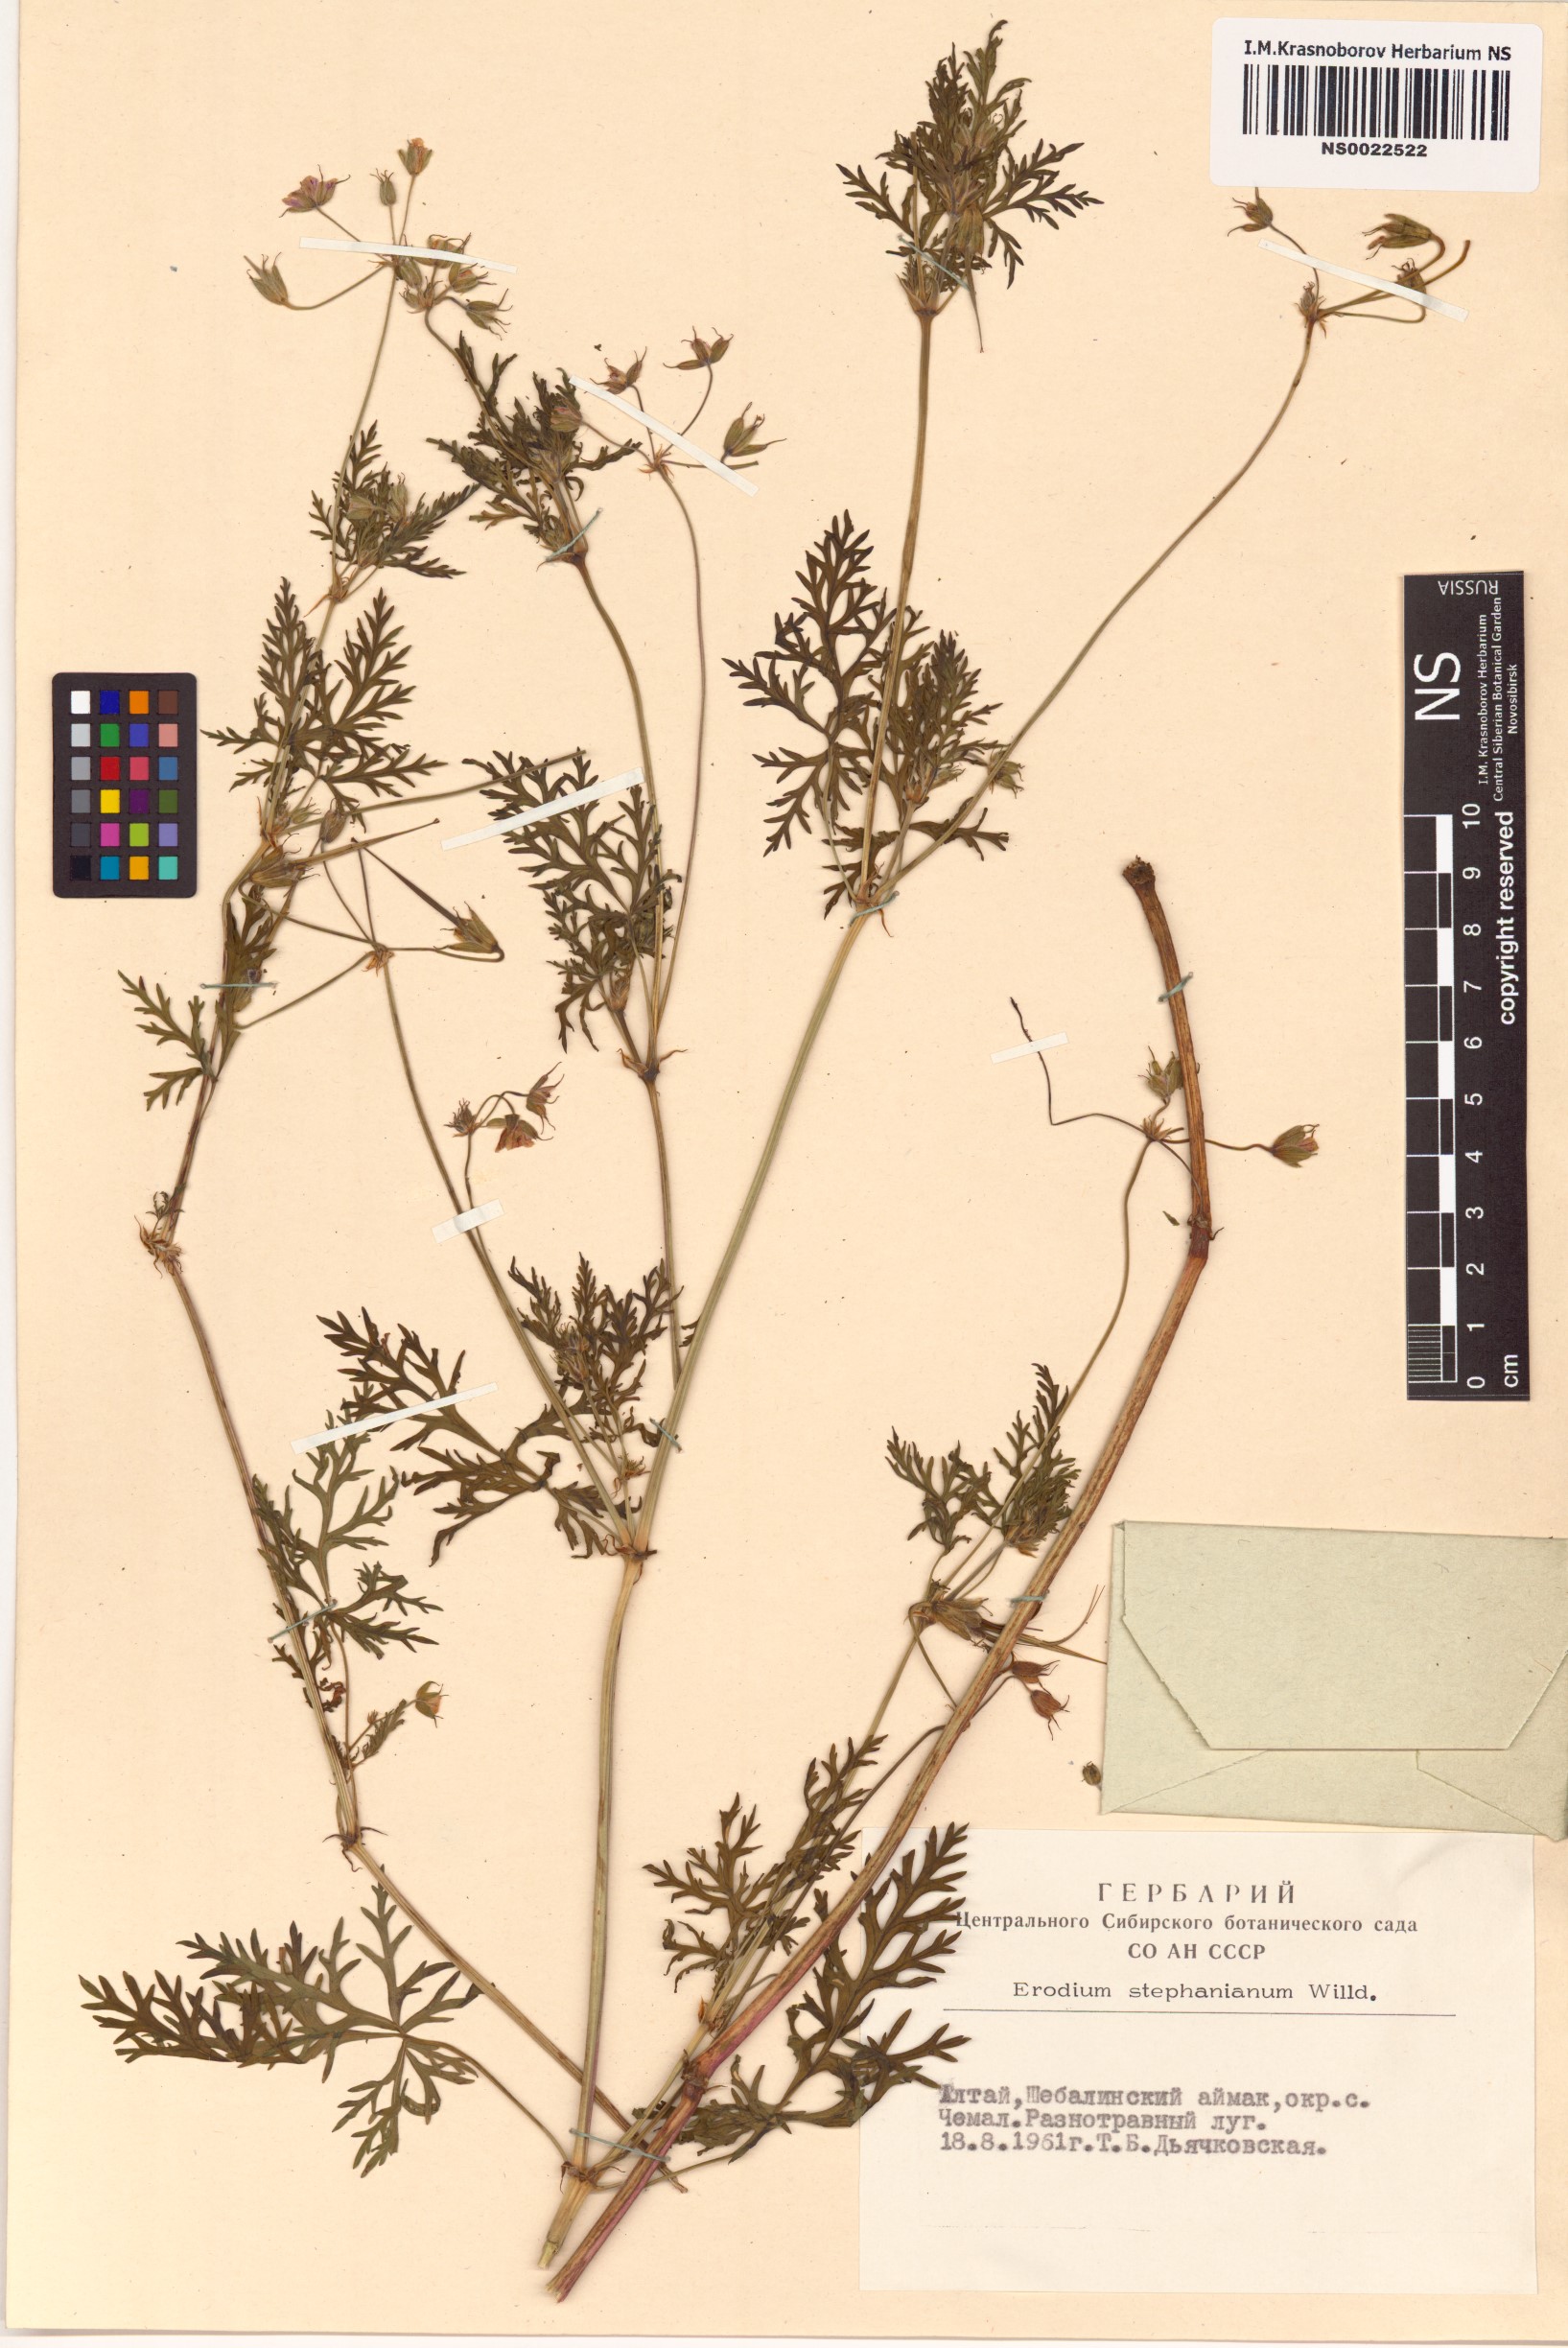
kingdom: Plantae
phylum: Tracheophyta
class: Magnoliopsida
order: Geraniales
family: Geraniaceae
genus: Erodium
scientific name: Erodium stephanianum
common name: Stephen's stork's bill
